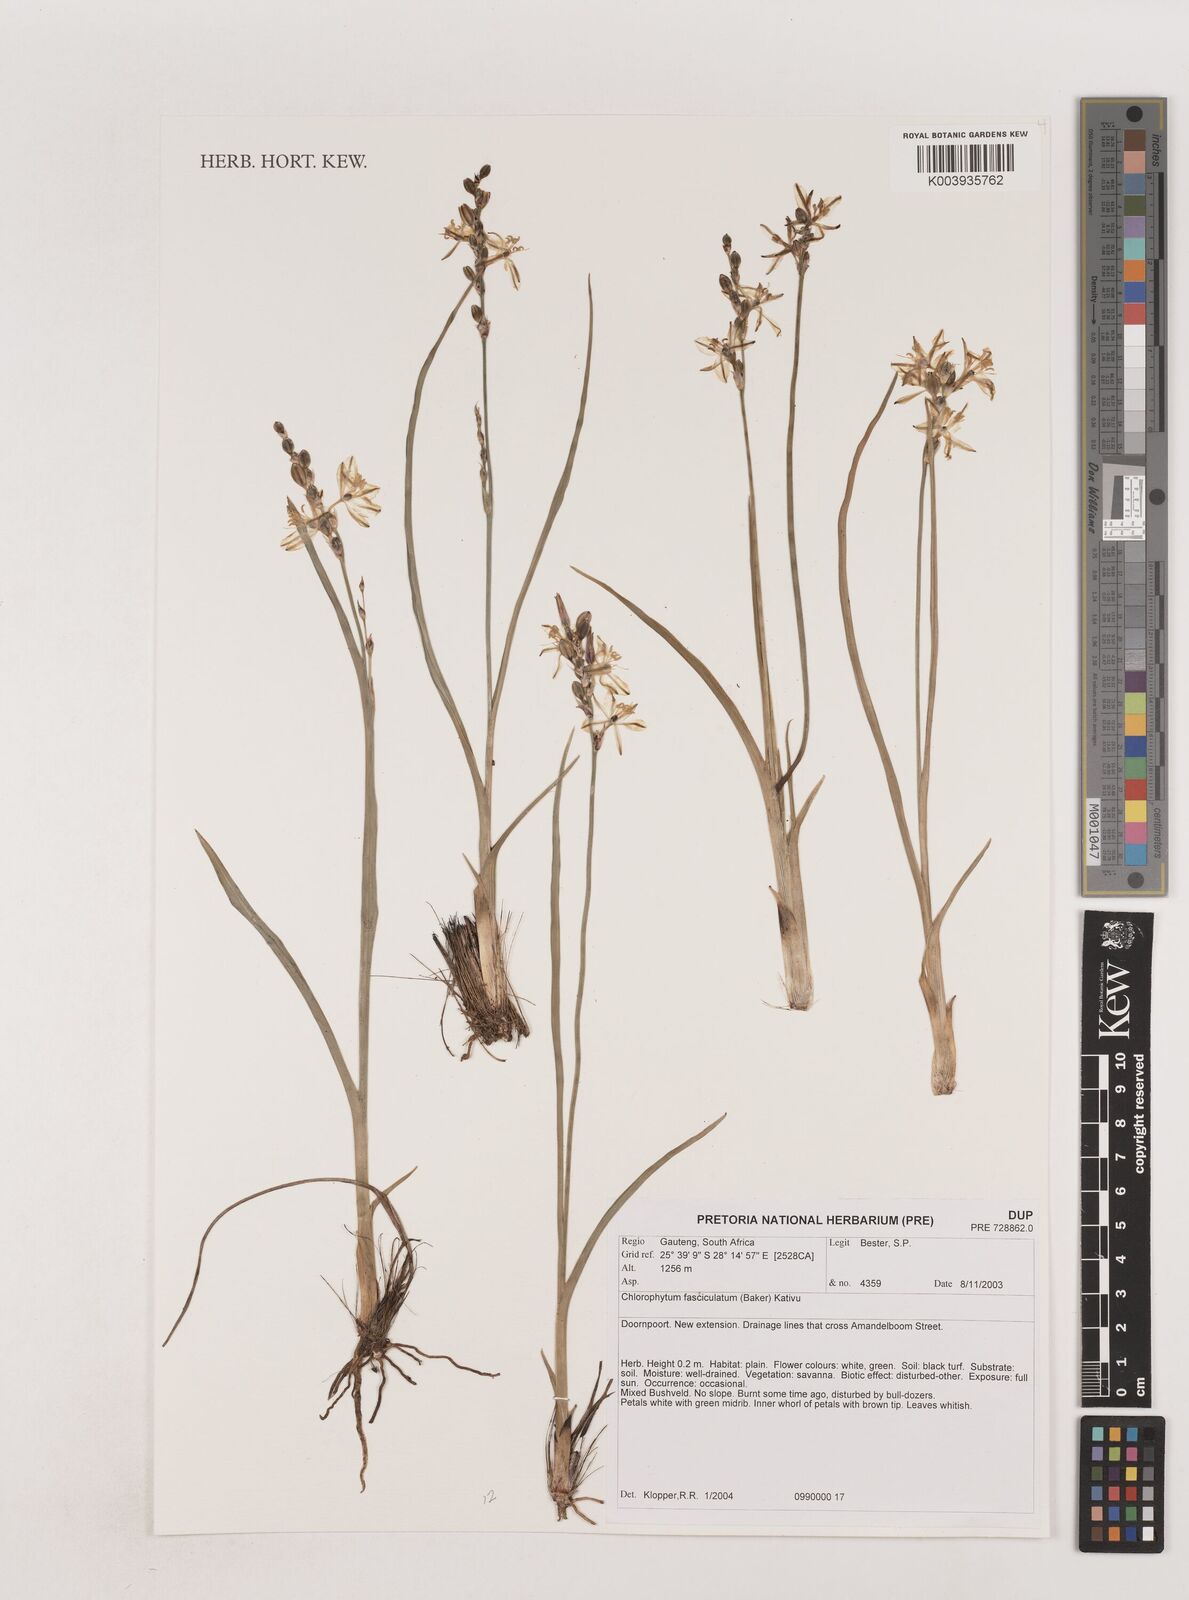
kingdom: Plantae
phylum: Tracheophyta
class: Liliopsida
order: Asparagales
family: Asparagaceae
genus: Chlorophytum
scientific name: Chlorophytum fasciculatum
